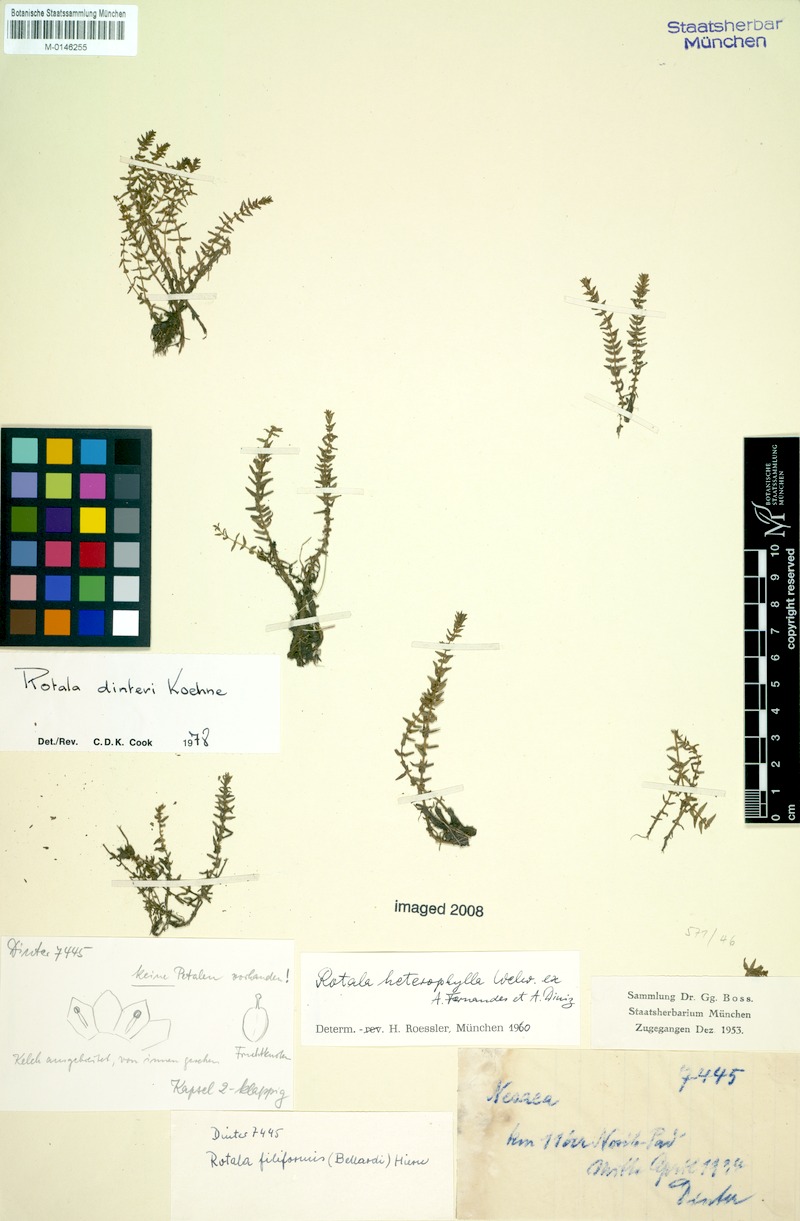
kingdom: Plantae
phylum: Tracheophyta
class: Magnoliopsida
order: Myrtales
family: Lythraceae
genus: Rotala
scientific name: Rotala dinteri
